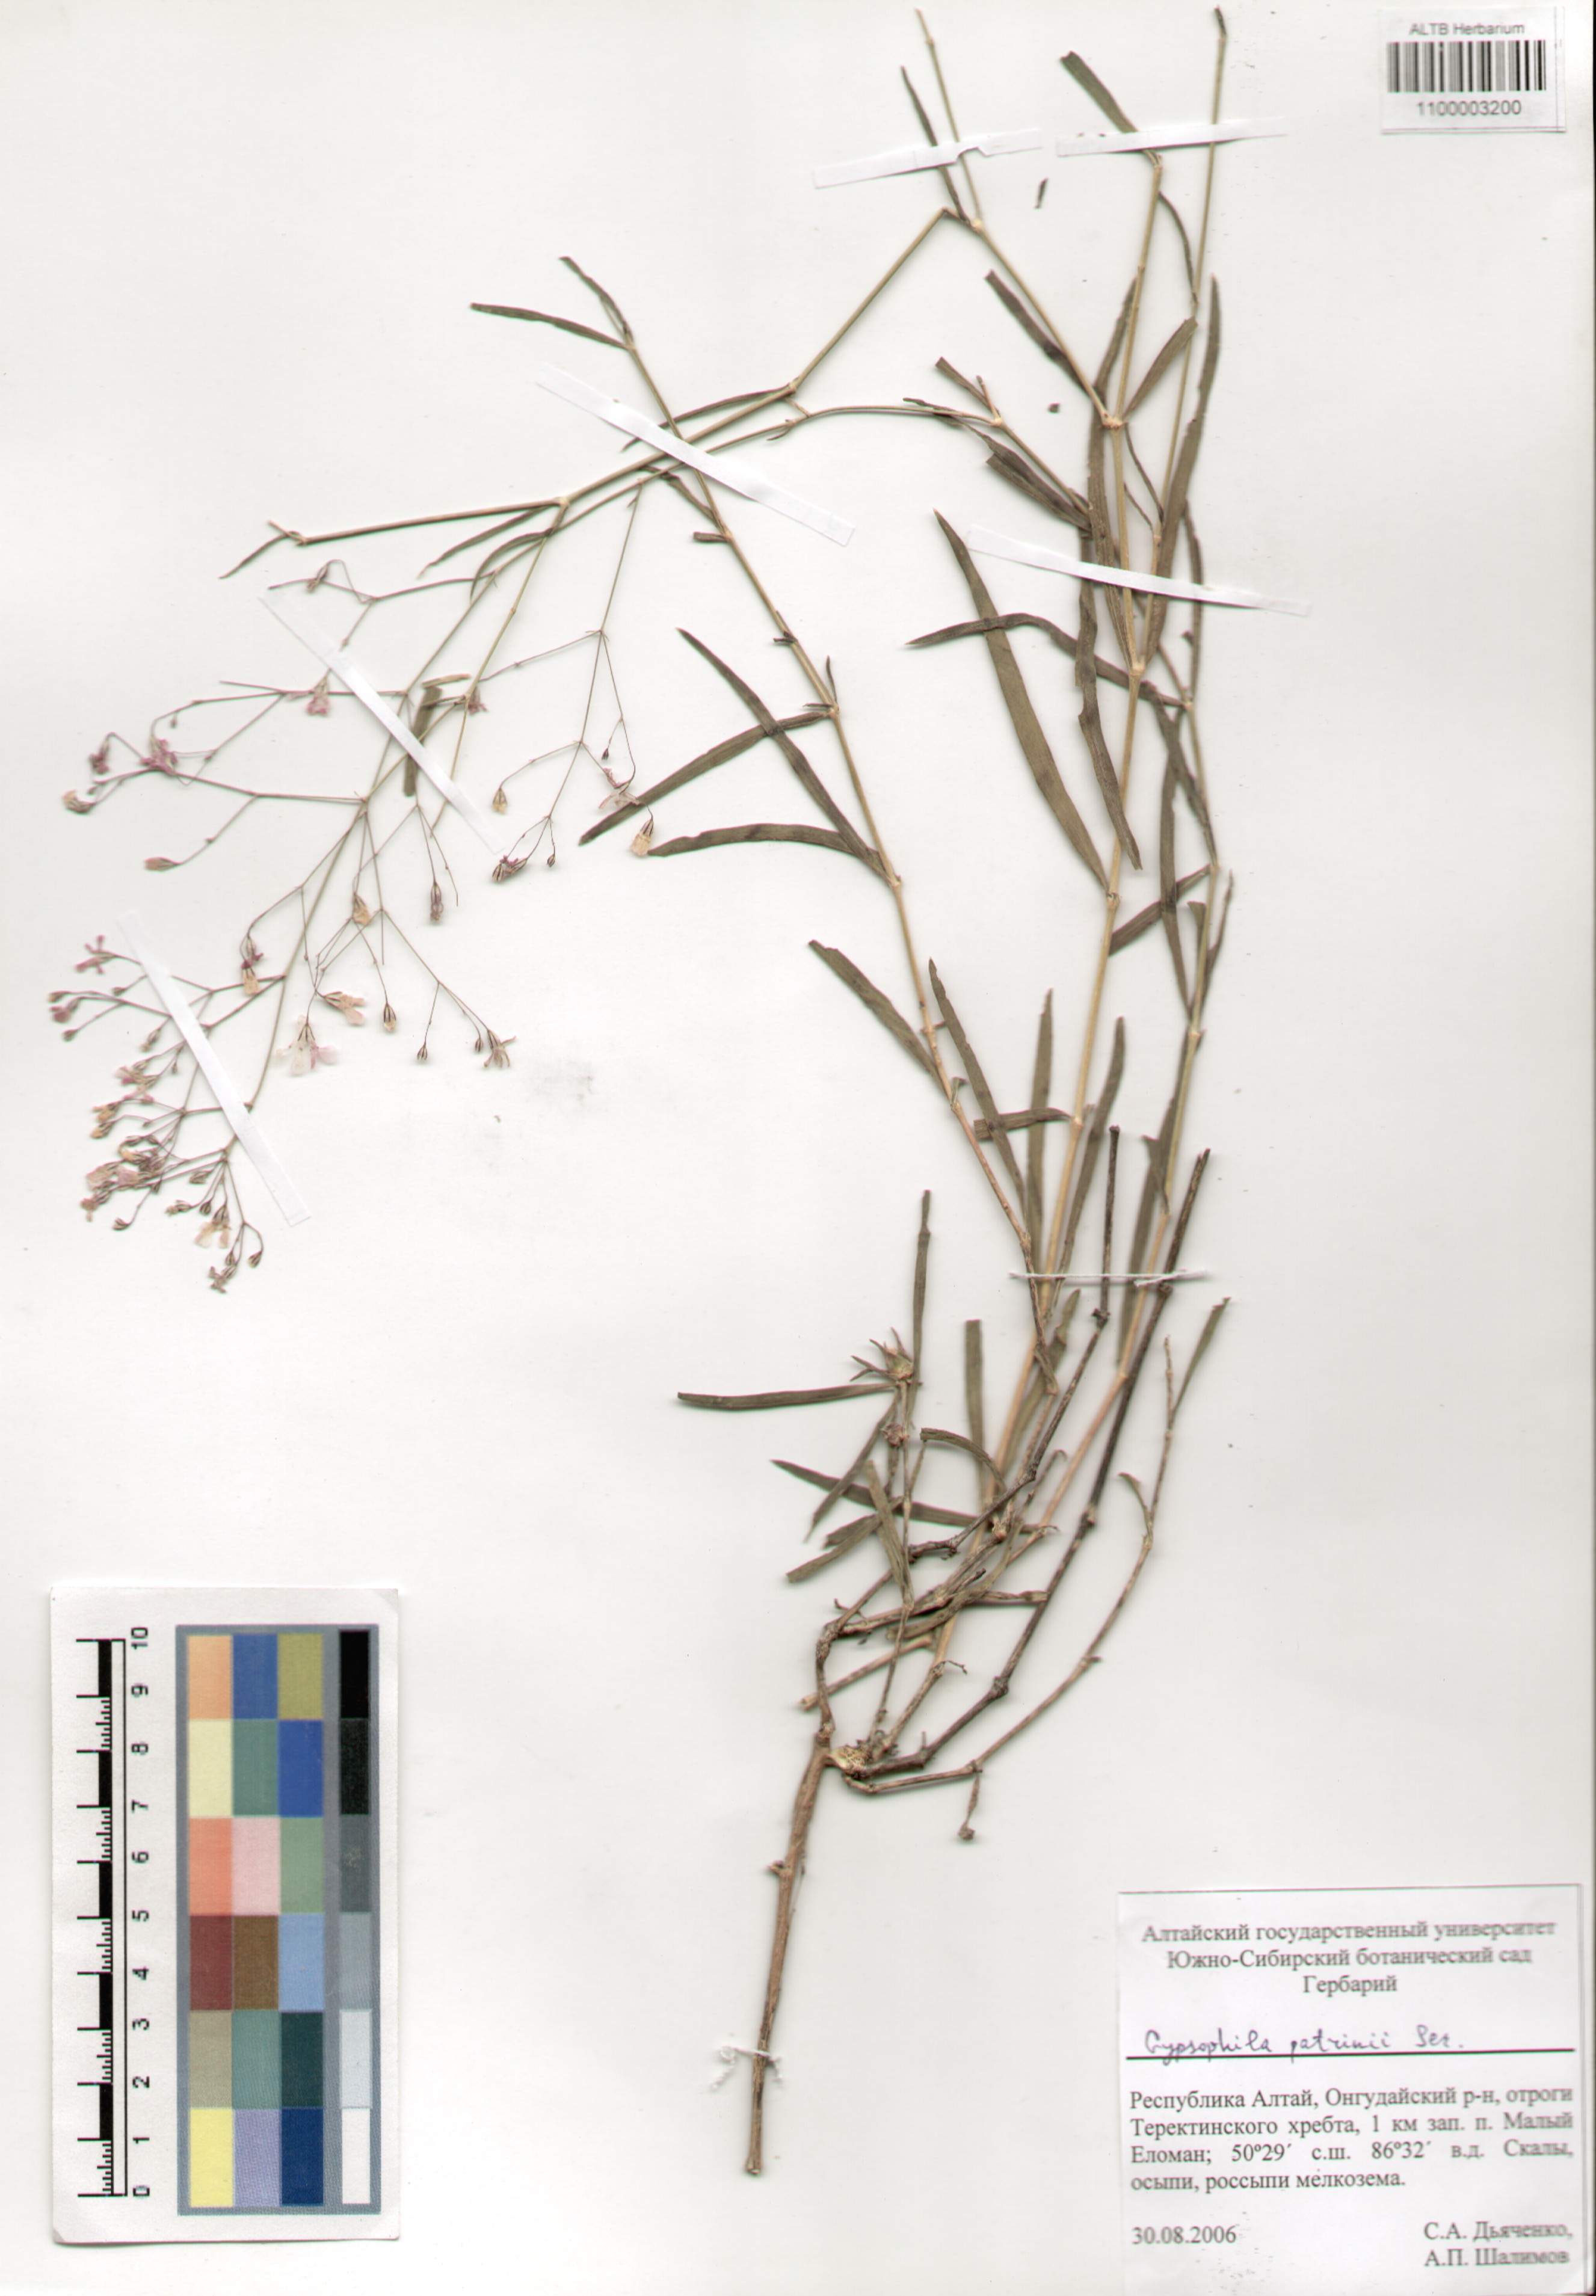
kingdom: Plantae
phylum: Tracheophyta
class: Magnoliopsida
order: Caryophyllales
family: Caryophyllaceae
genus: Gypsophila
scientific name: Gypsophila patrinii
